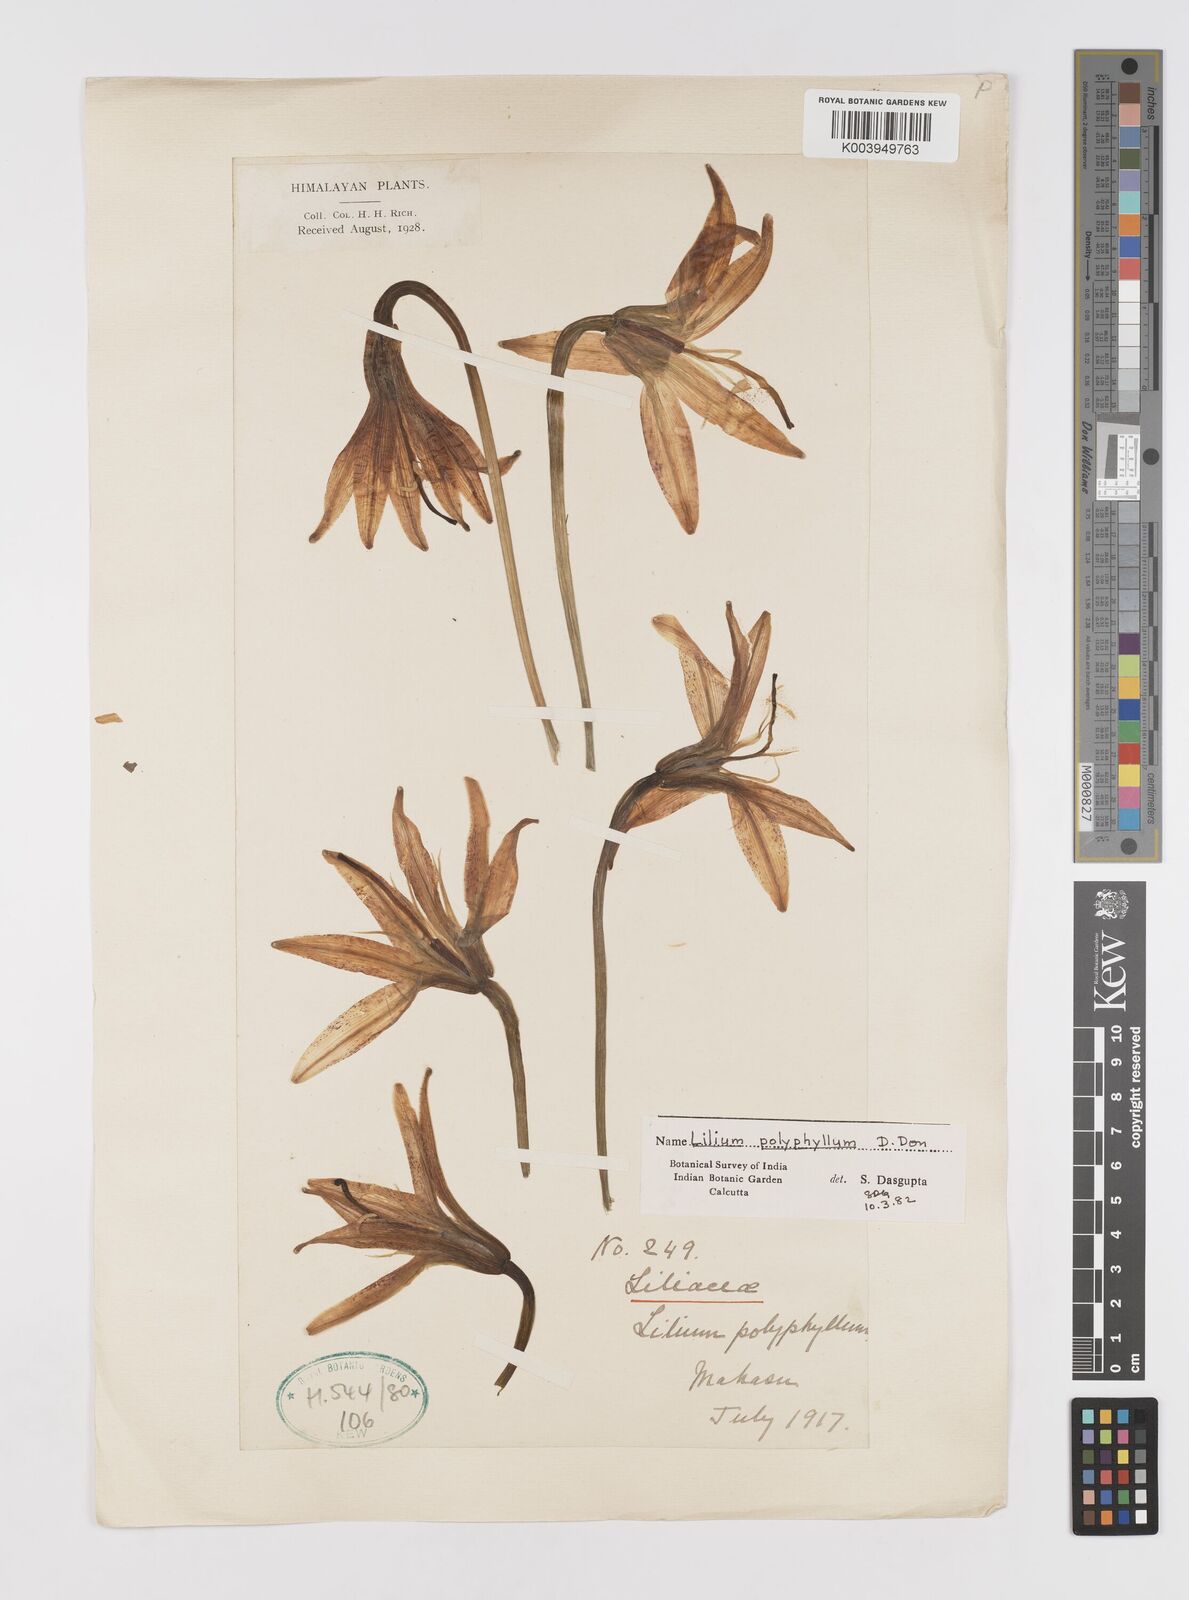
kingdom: Plantae
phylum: Tracheophyta
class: Liliopsida
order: Liliales
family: Liliaceae
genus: Lilium
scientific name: Lilium polyphyllum
